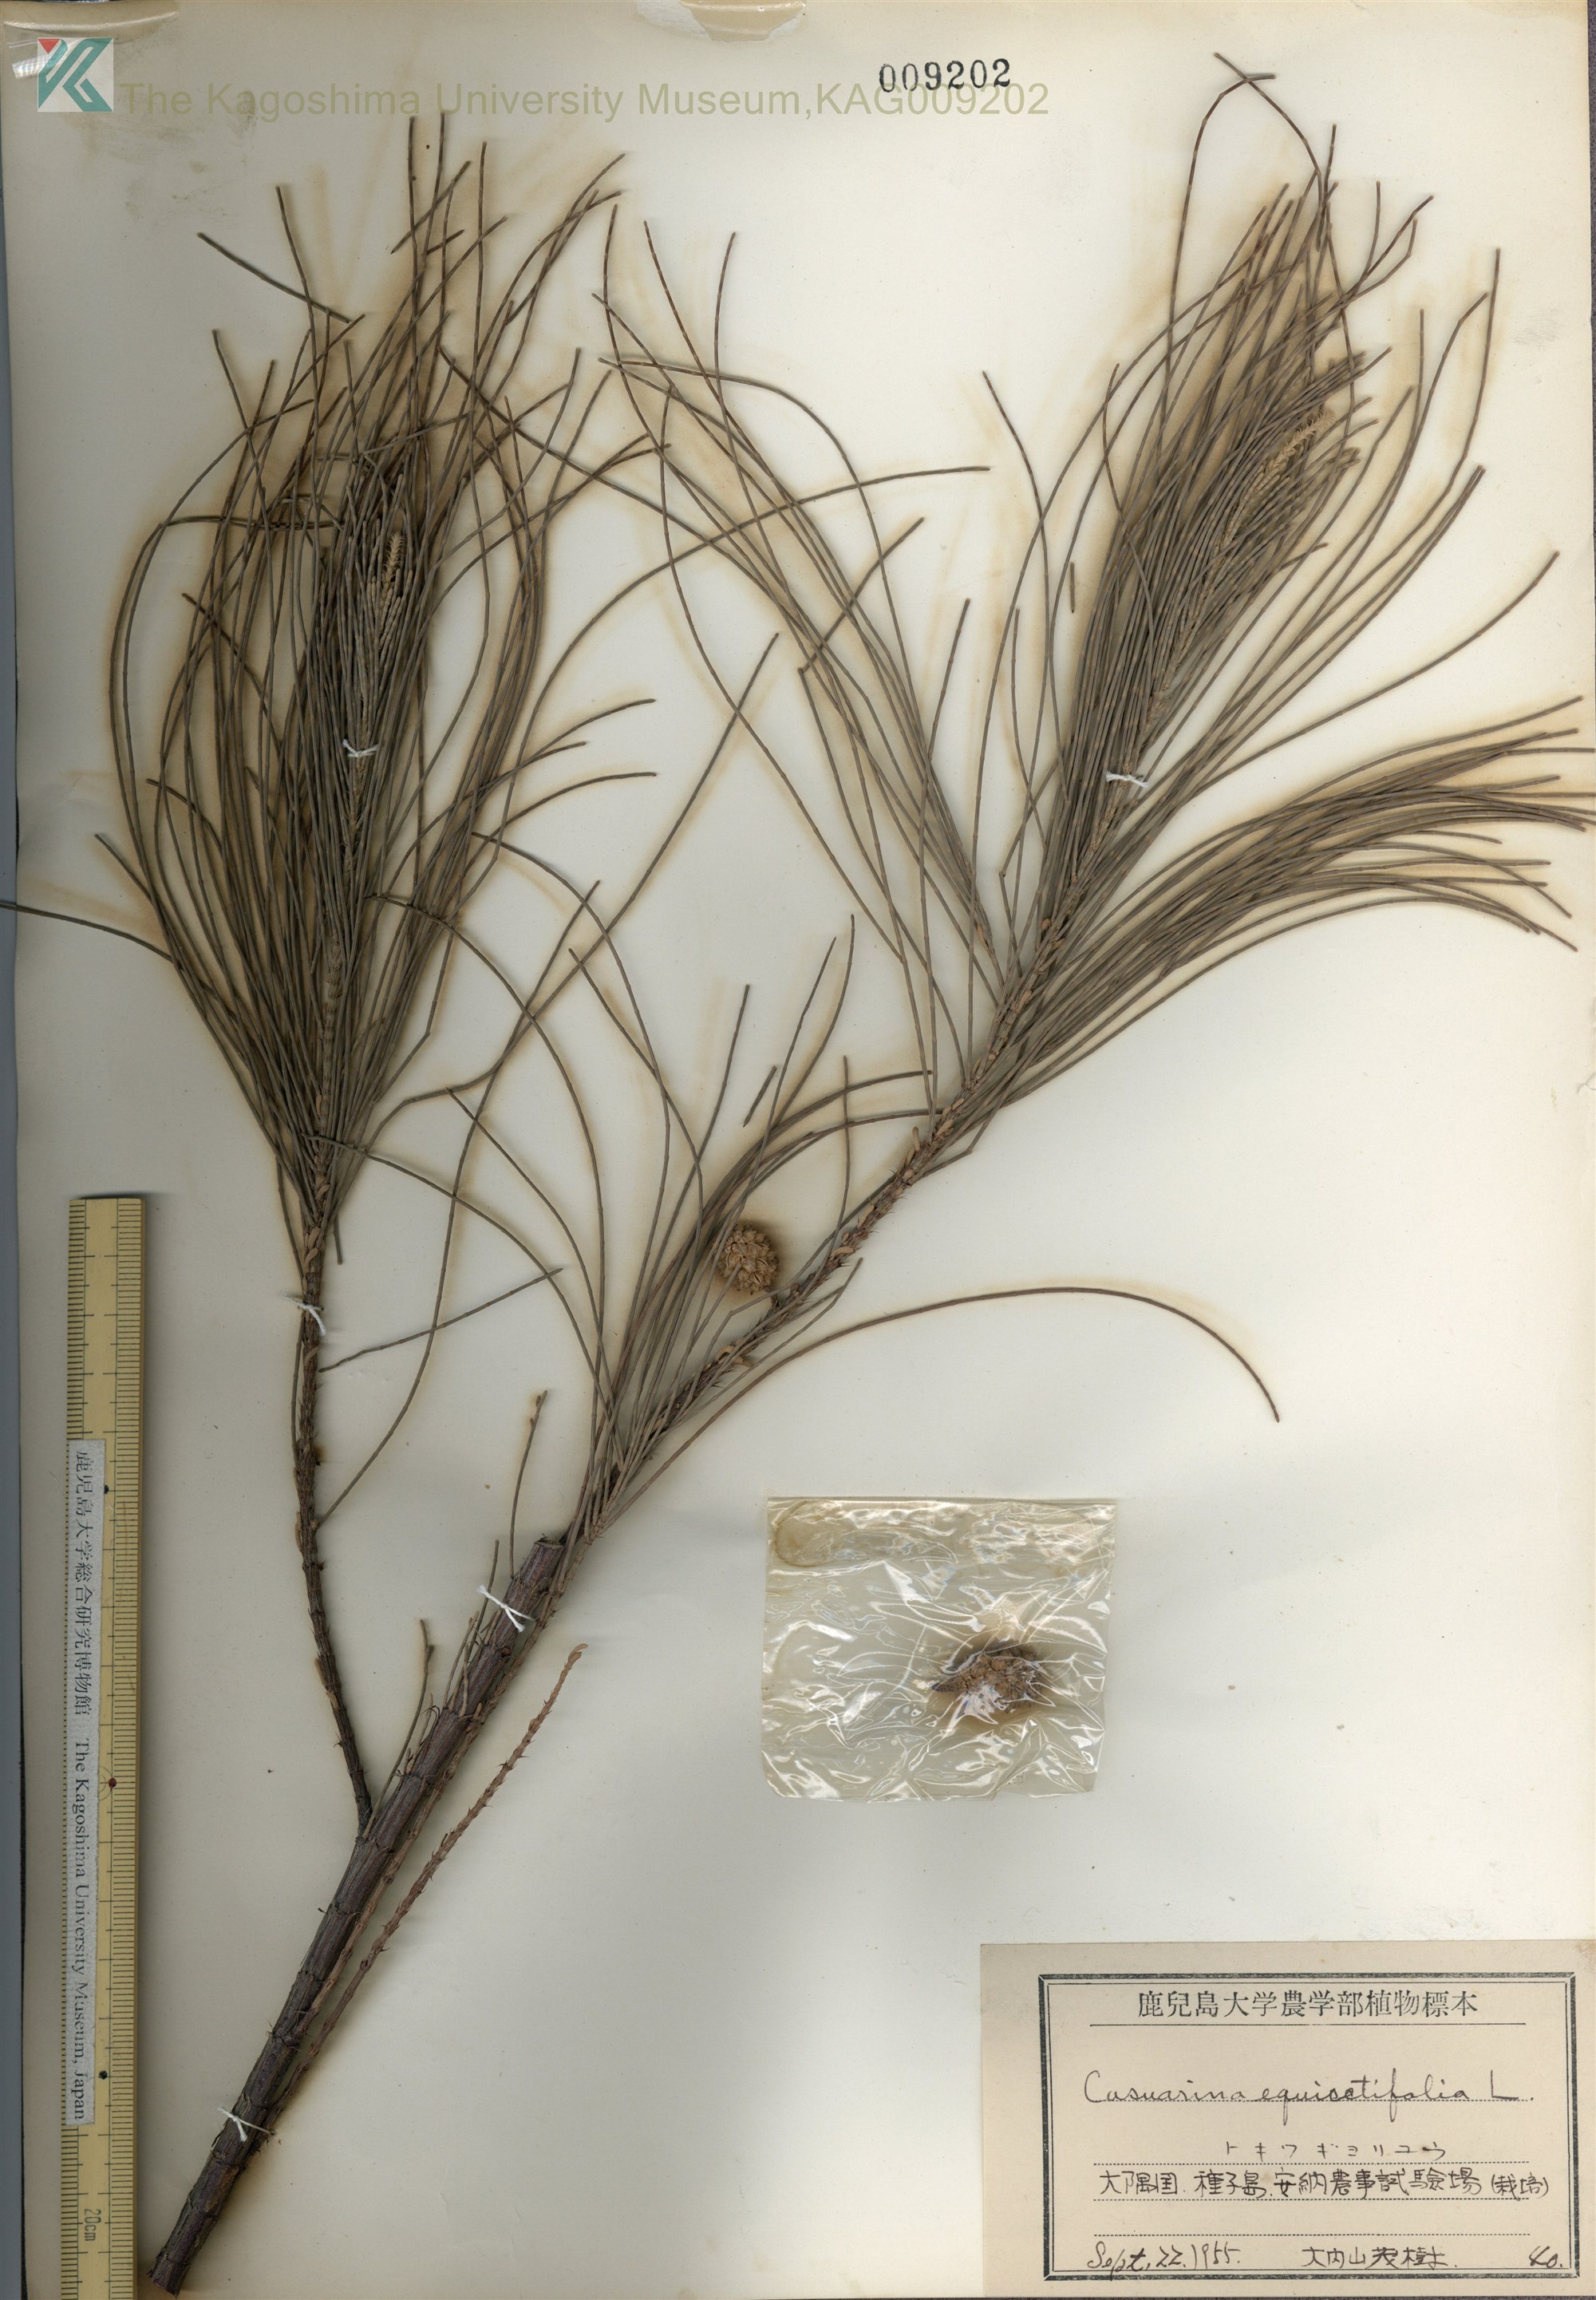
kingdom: Plantae
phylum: Tracheophyta
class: Magnoliopsida
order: Fagales
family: Casuarinaceae
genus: Casuarina
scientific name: Casuarina equisetifolia
